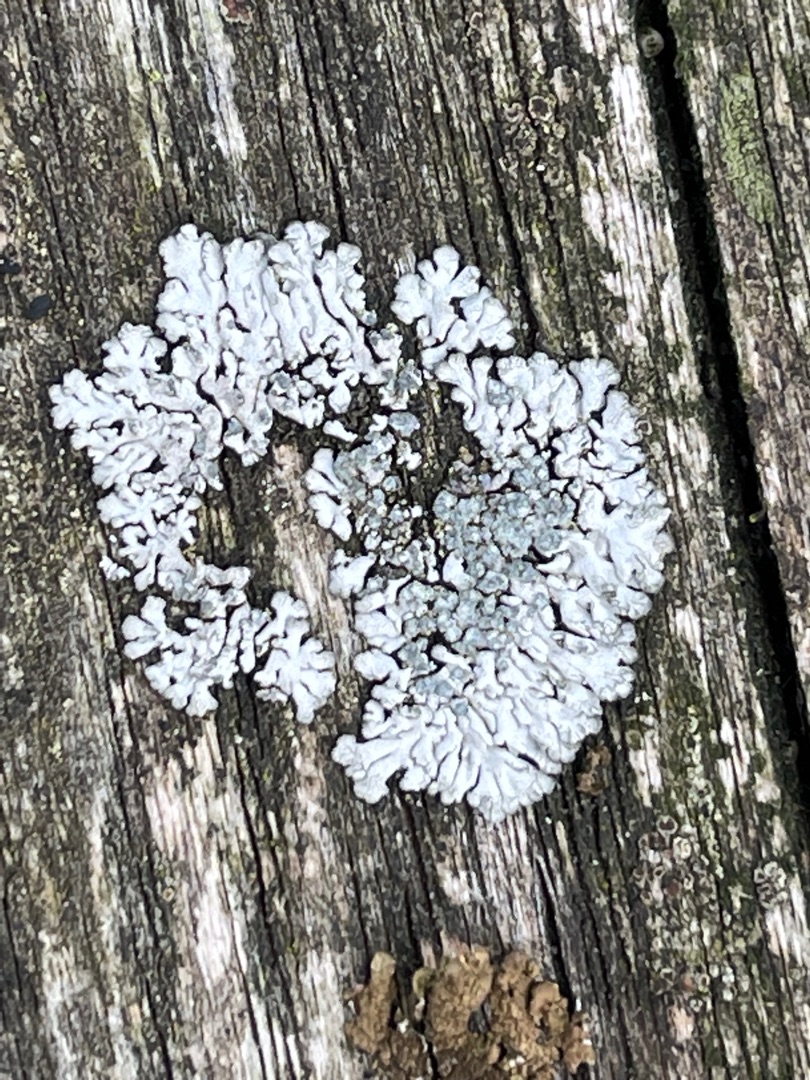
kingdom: Fungi
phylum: Ascomycota
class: Lecanoromycetes
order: Caliciales
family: Physciaceae
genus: Physcia
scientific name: Physcia caesia
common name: Blågrå rosetlav
